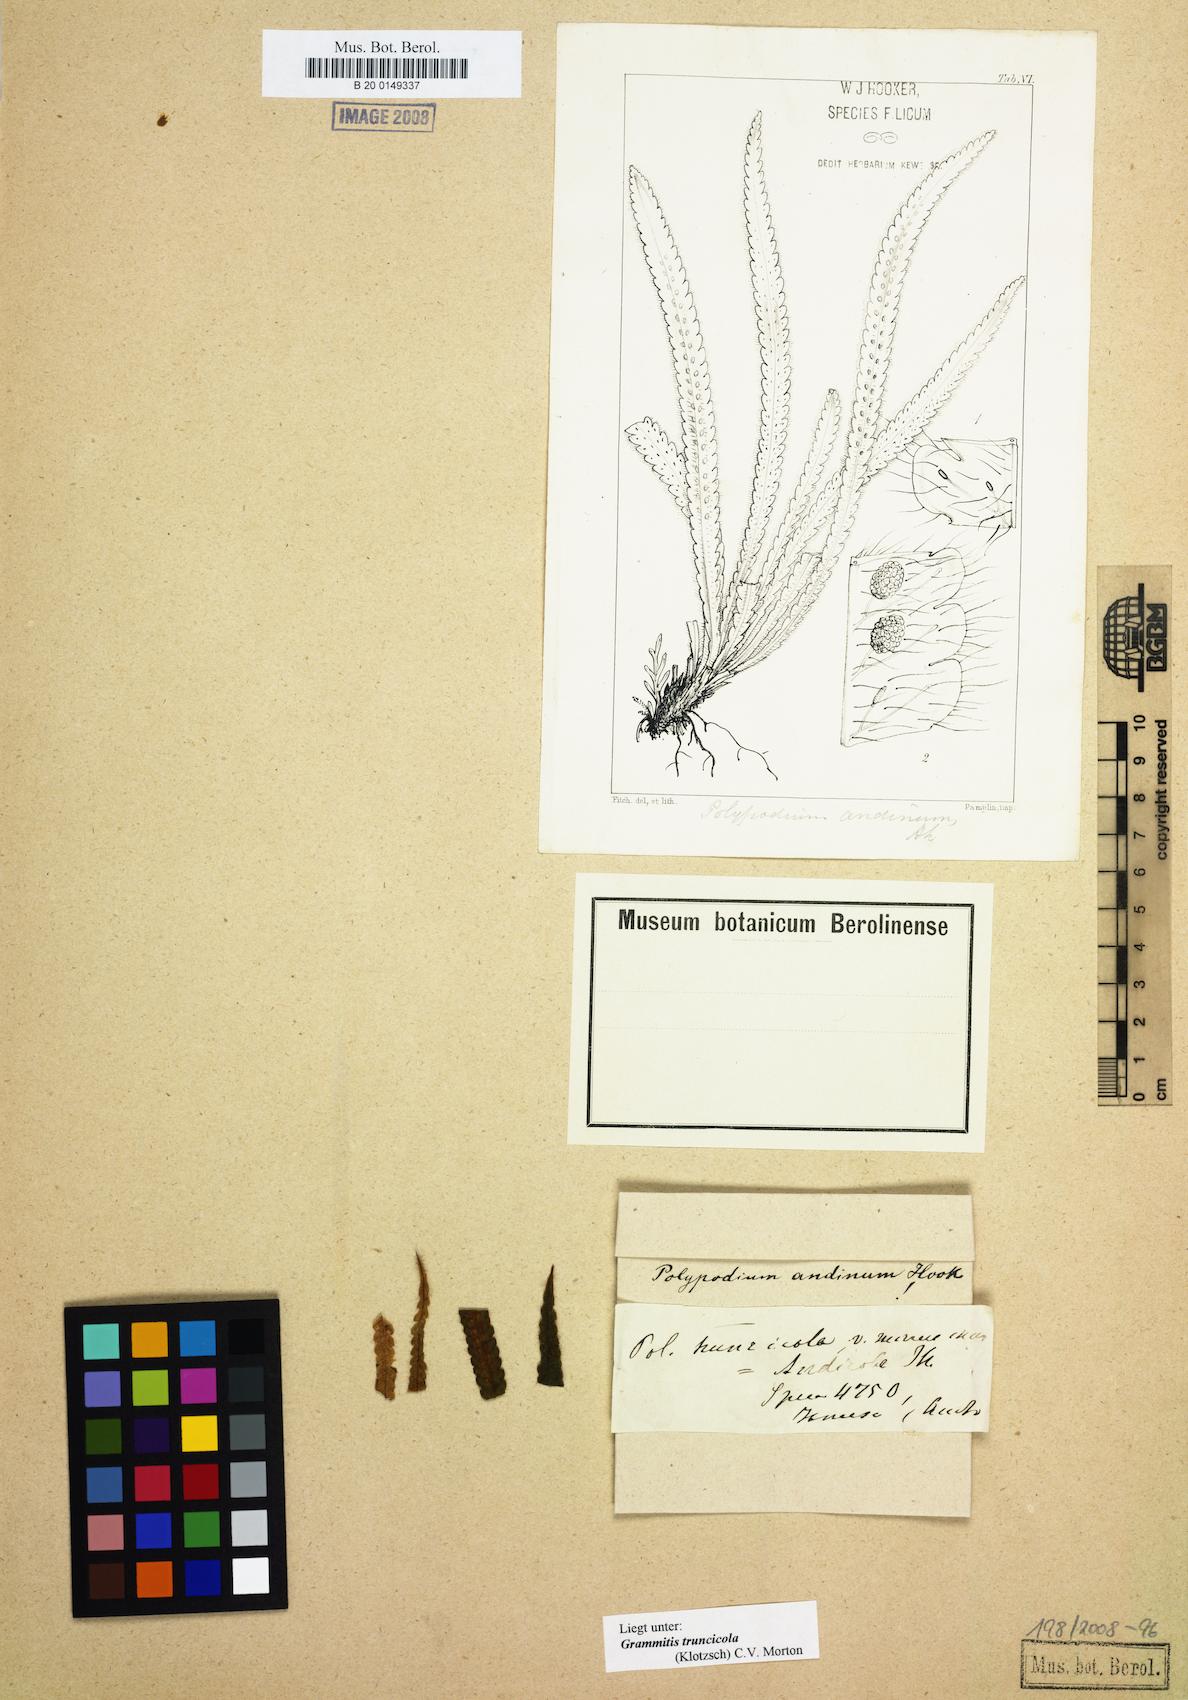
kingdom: Plantae
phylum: Tracheophyta
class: Polypodiopsida
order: Polypodiales
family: Polypodiaceae
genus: Moranopteris
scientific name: Moranopteris truncicola
